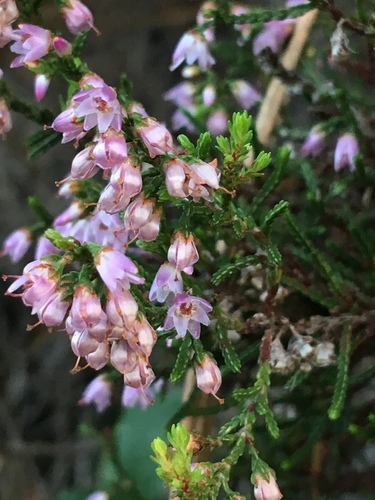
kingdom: Plantae
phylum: Tracheophyta
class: Magnoliopsida
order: Ericales
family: Ericaceae
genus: Calluna
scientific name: Calluna vulgaris
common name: Heather
